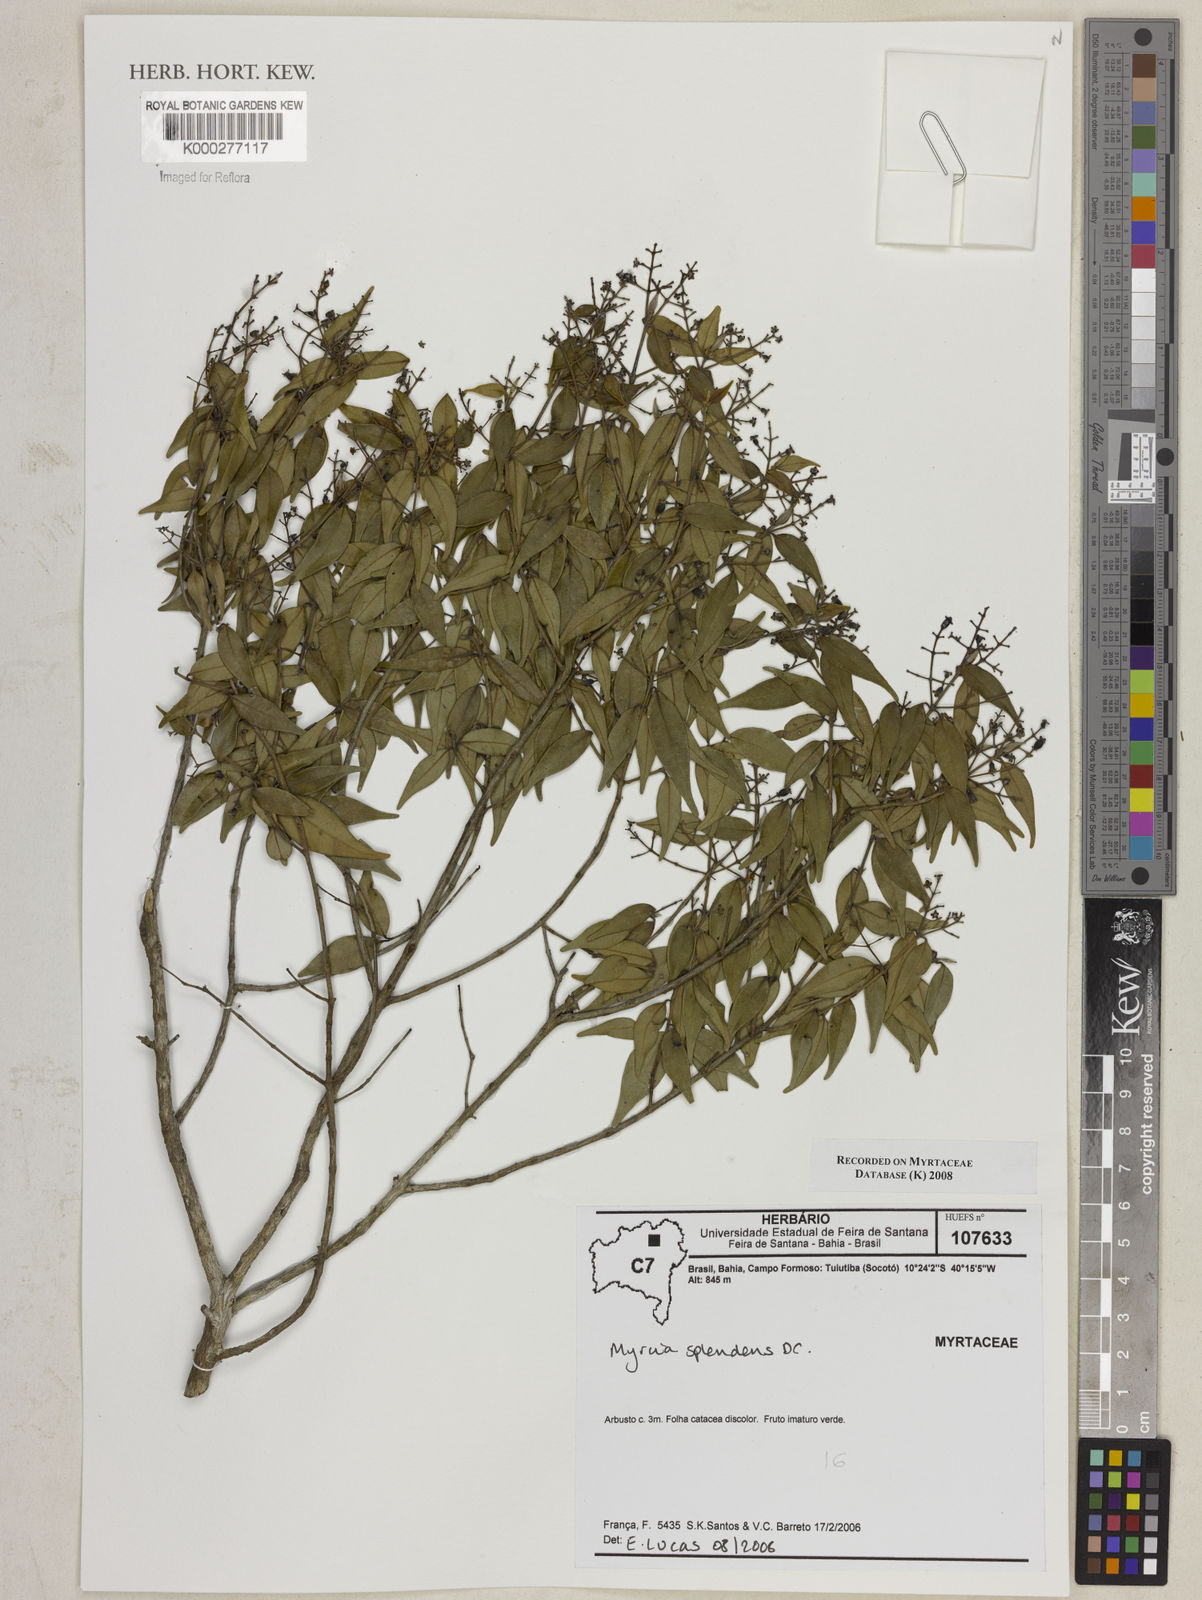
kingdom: Plantae
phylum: Tracheophyta
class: Magnoliopsida
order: Myrtales
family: Myrtaceae
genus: Myrcia
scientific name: Myrcia splendens
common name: Surinam cherry
